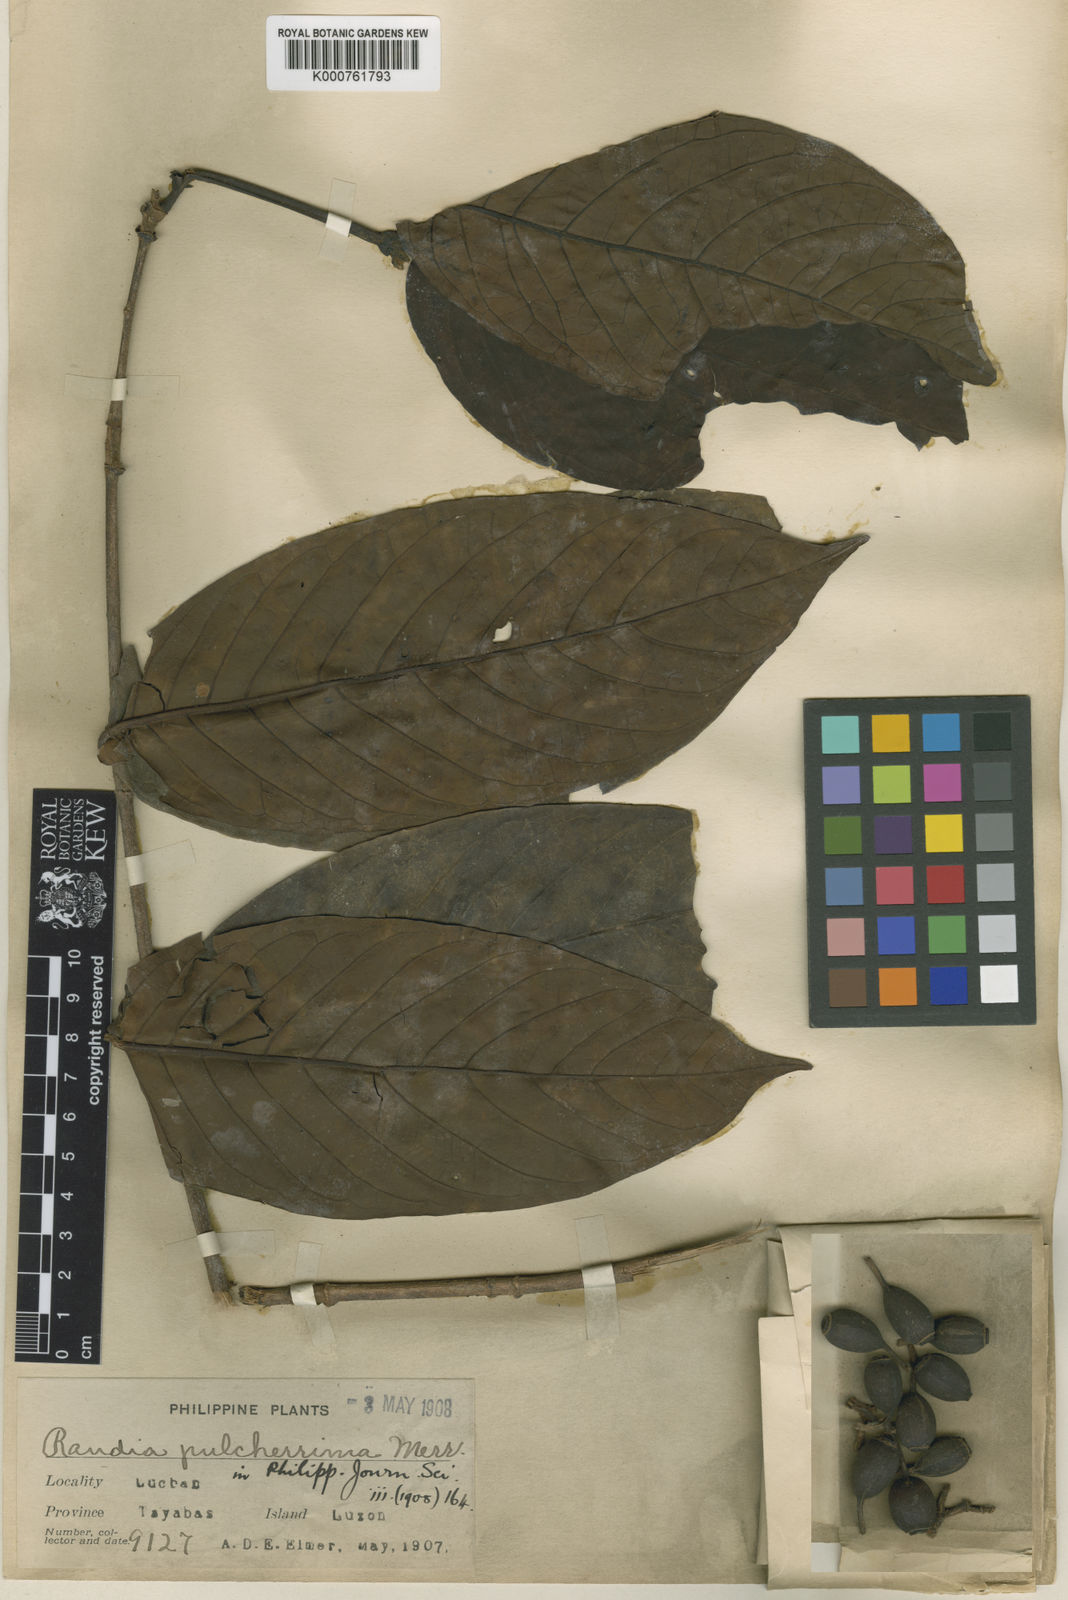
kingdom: Plantae
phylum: Tracheophyta
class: Magnoliopsida
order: Gentianales
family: Rubiaceae
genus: Aidia
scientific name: Aidia pulcherrima
